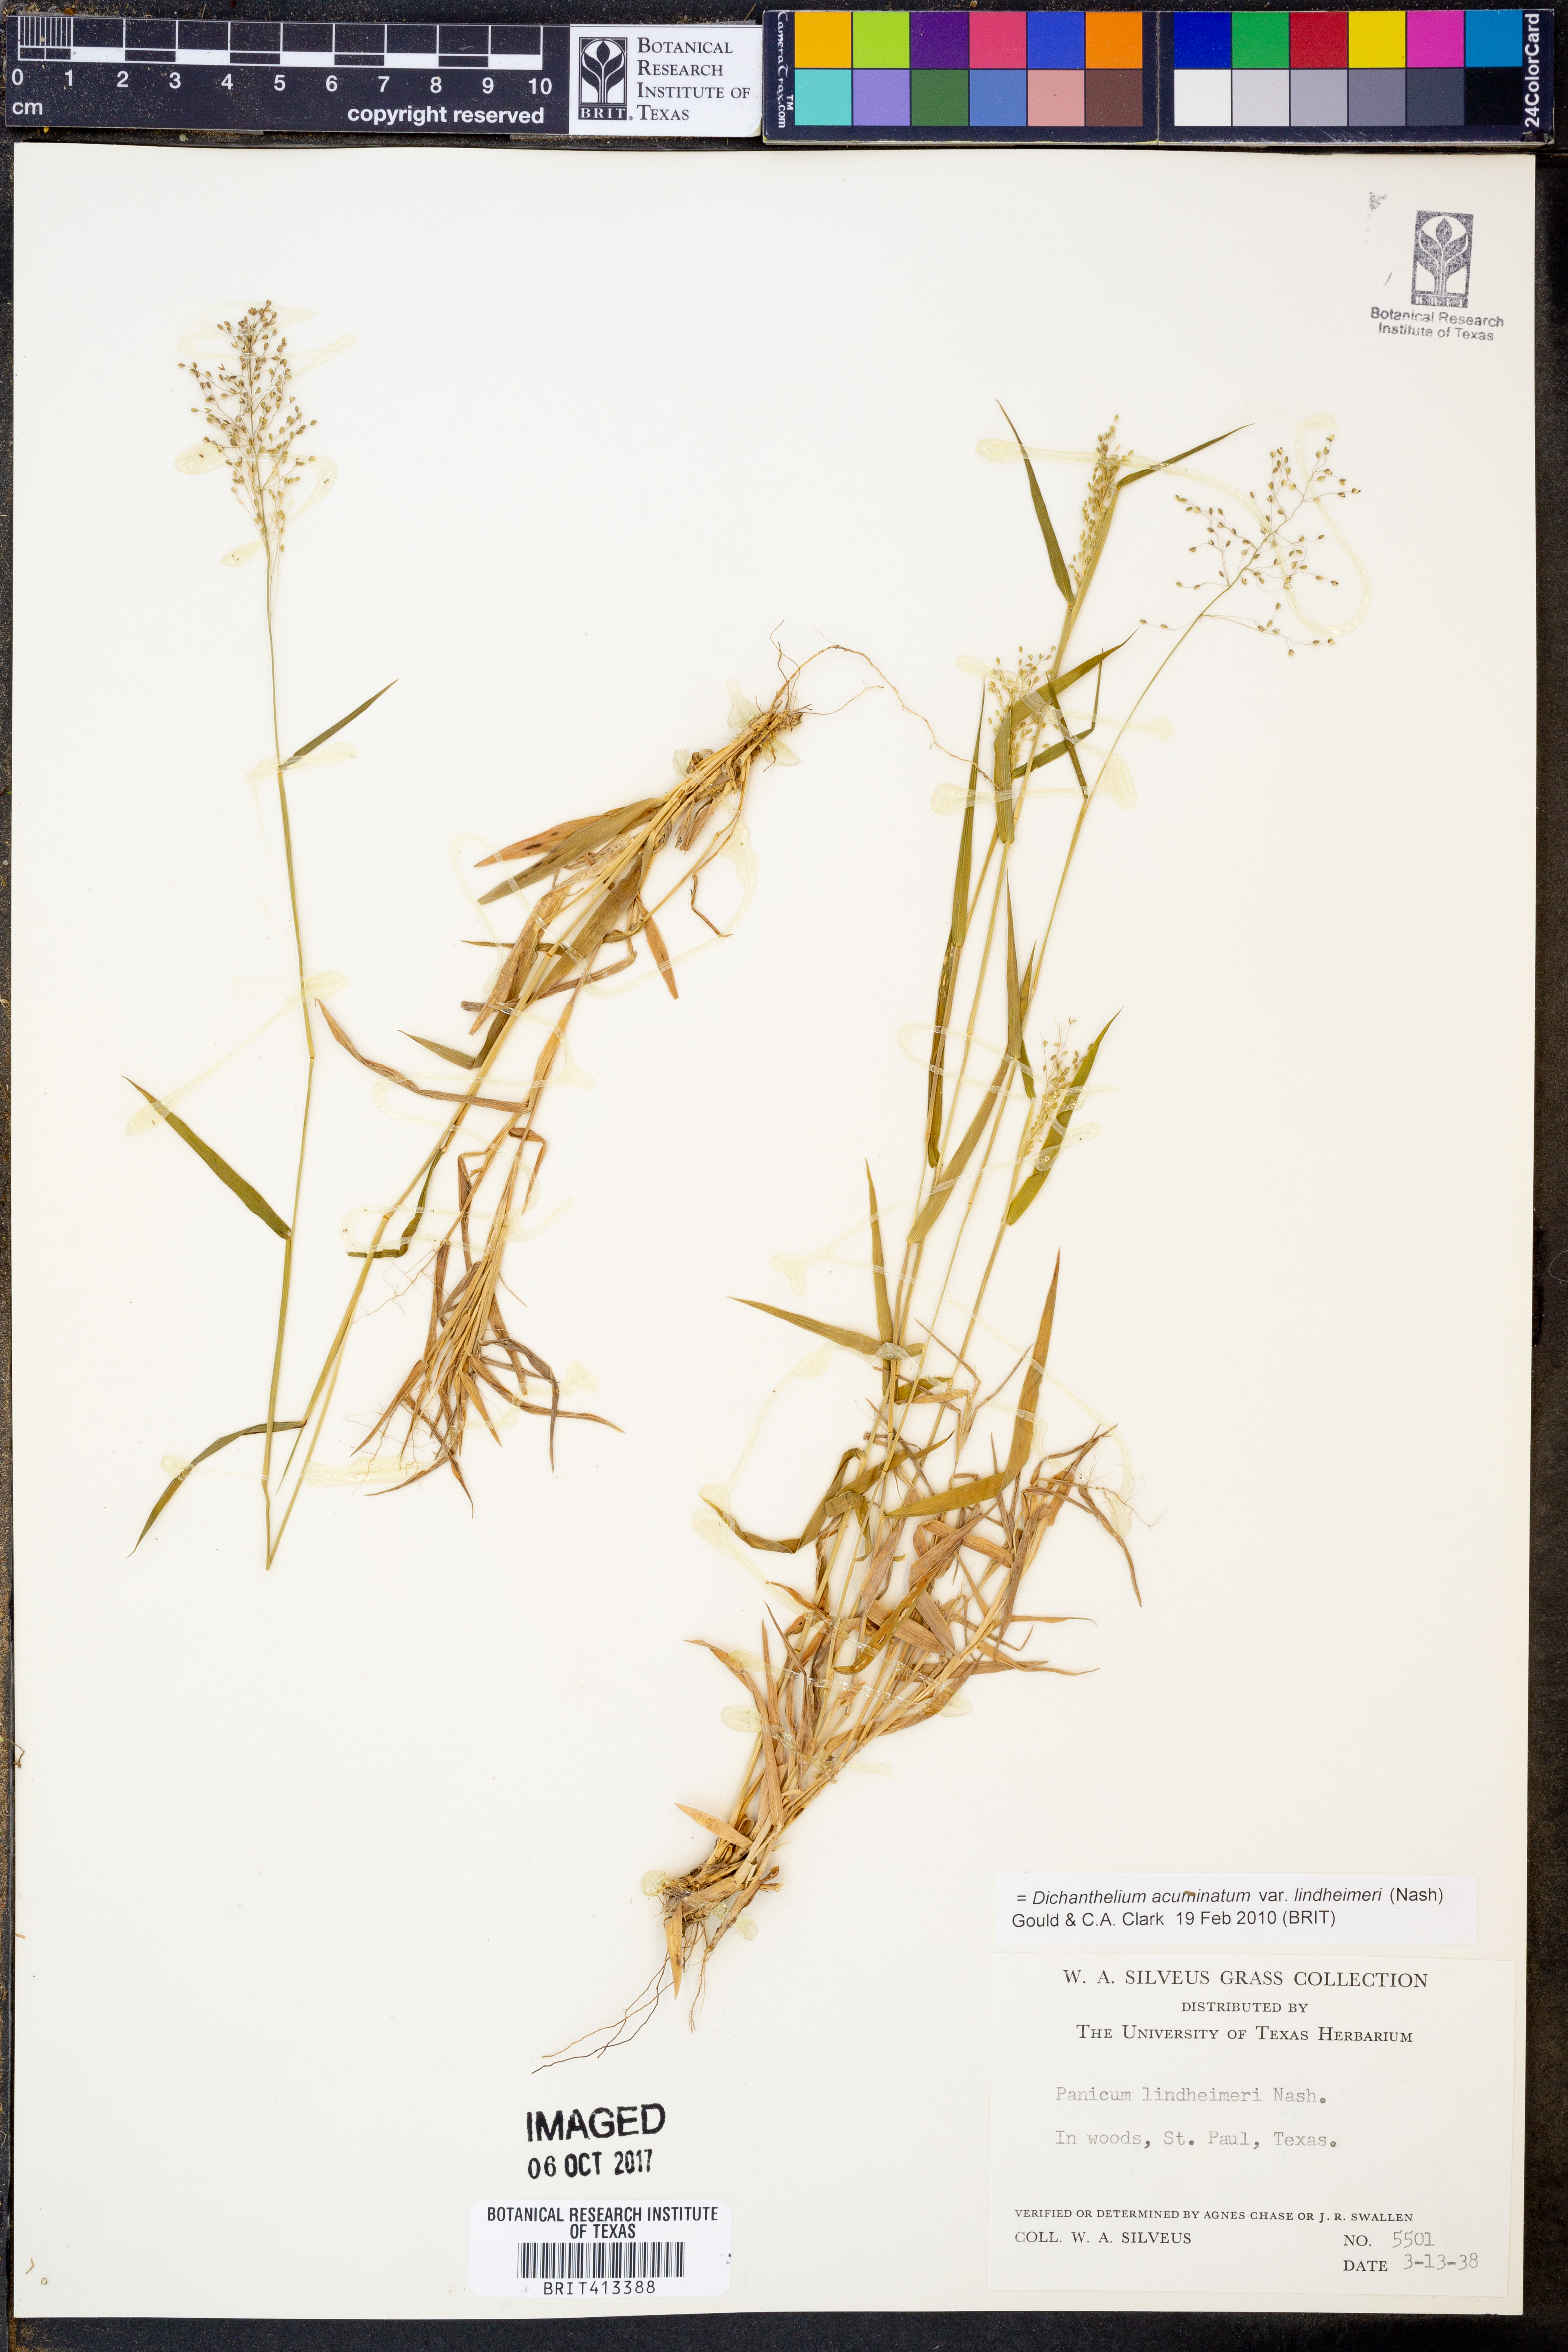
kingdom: Plantae
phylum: Tracheophyta
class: Liliopsida
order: Poales
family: Poaceae
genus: Dichanthelium
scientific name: Dichanthelium lindheimeri
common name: Lindheimer's panicgrass
